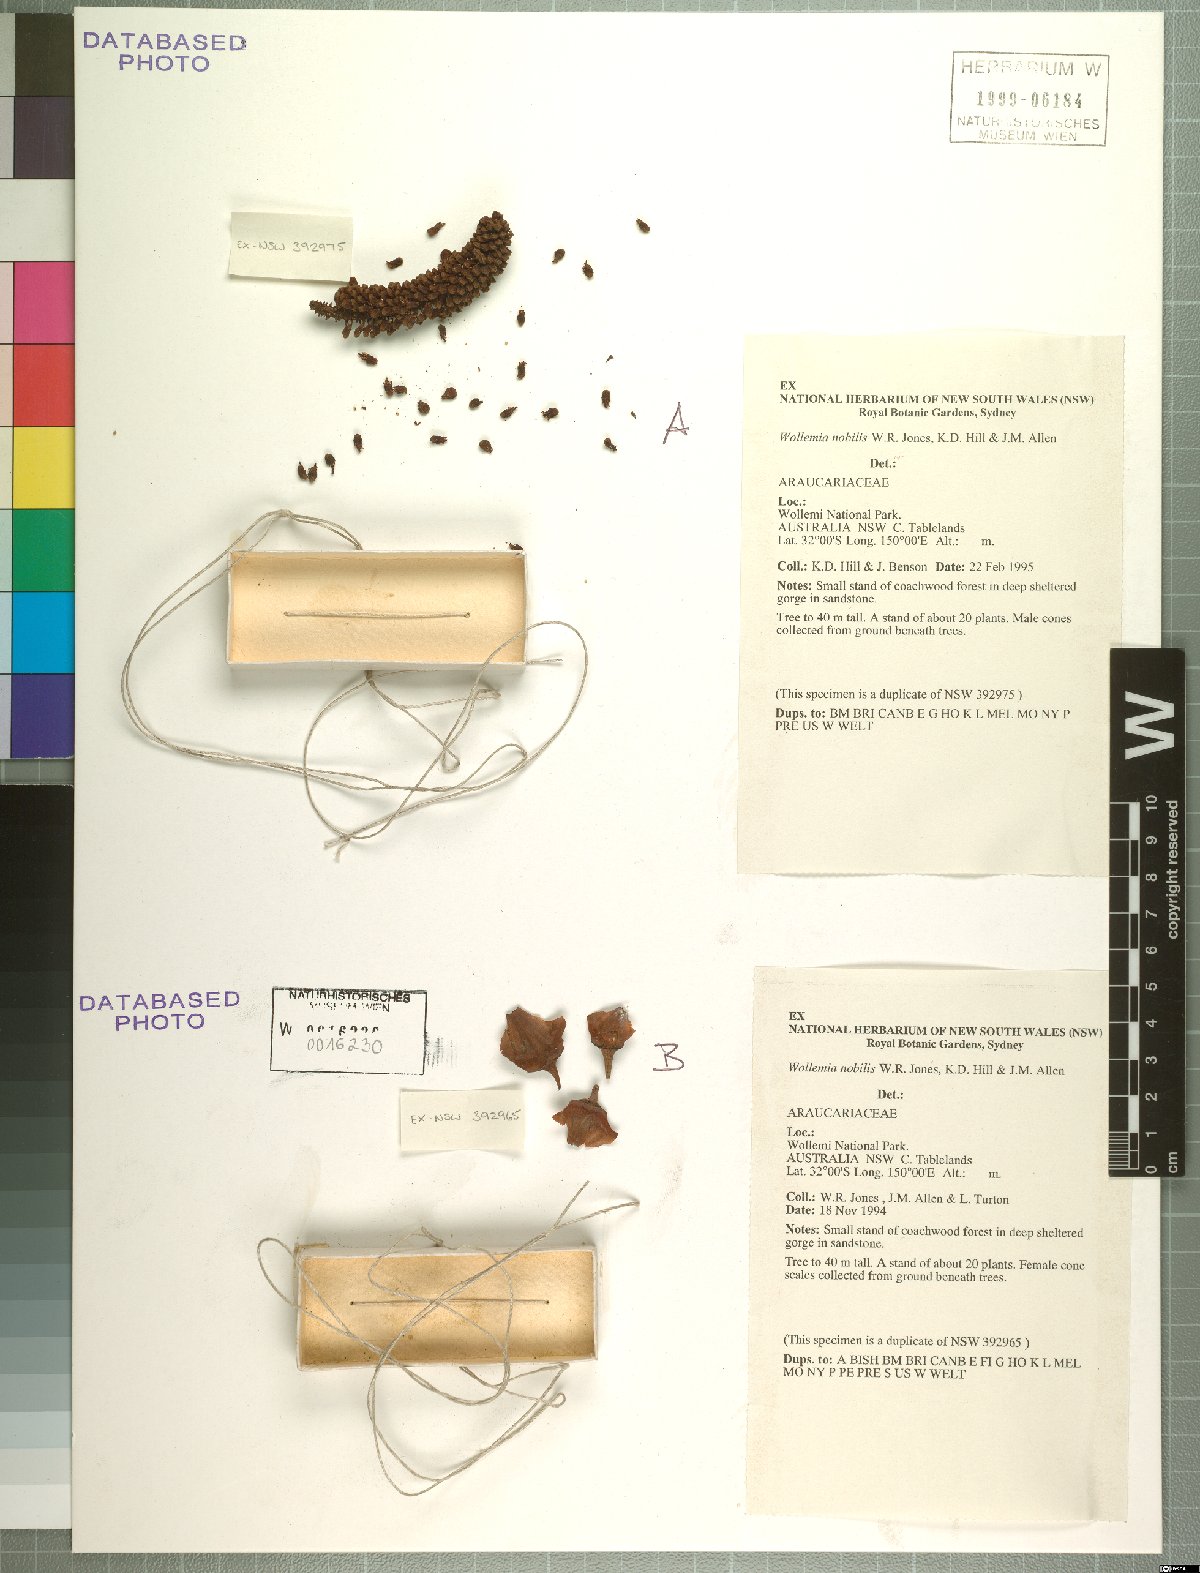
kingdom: Plantae
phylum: Tracheophyta
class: Pinopsida
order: Pinales
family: Araucariaceae
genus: Wollemia
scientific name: Wollemia nobilis
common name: Wollemi pine
